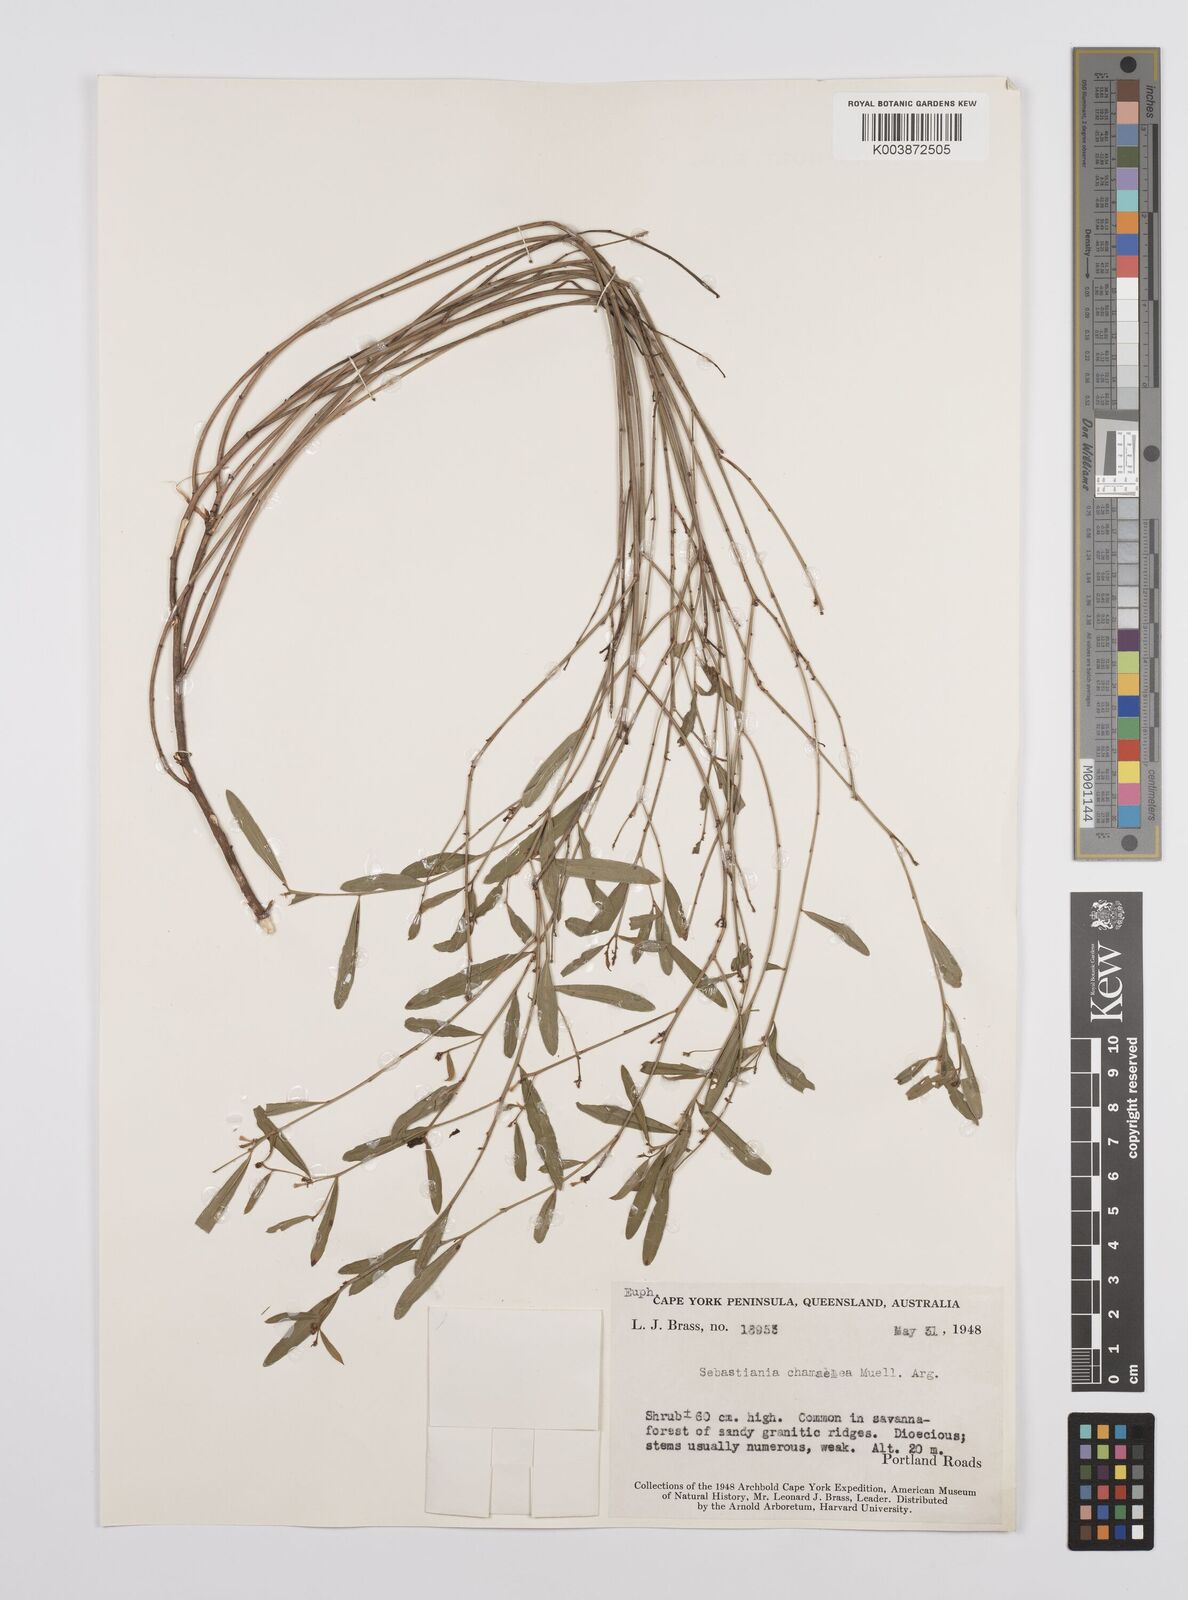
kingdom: Plantae
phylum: Tracheophyta
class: Magnoliopsida
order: Malpighiales
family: Euphorbiaceae
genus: Microstachys
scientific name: Microstachys chamaelea
